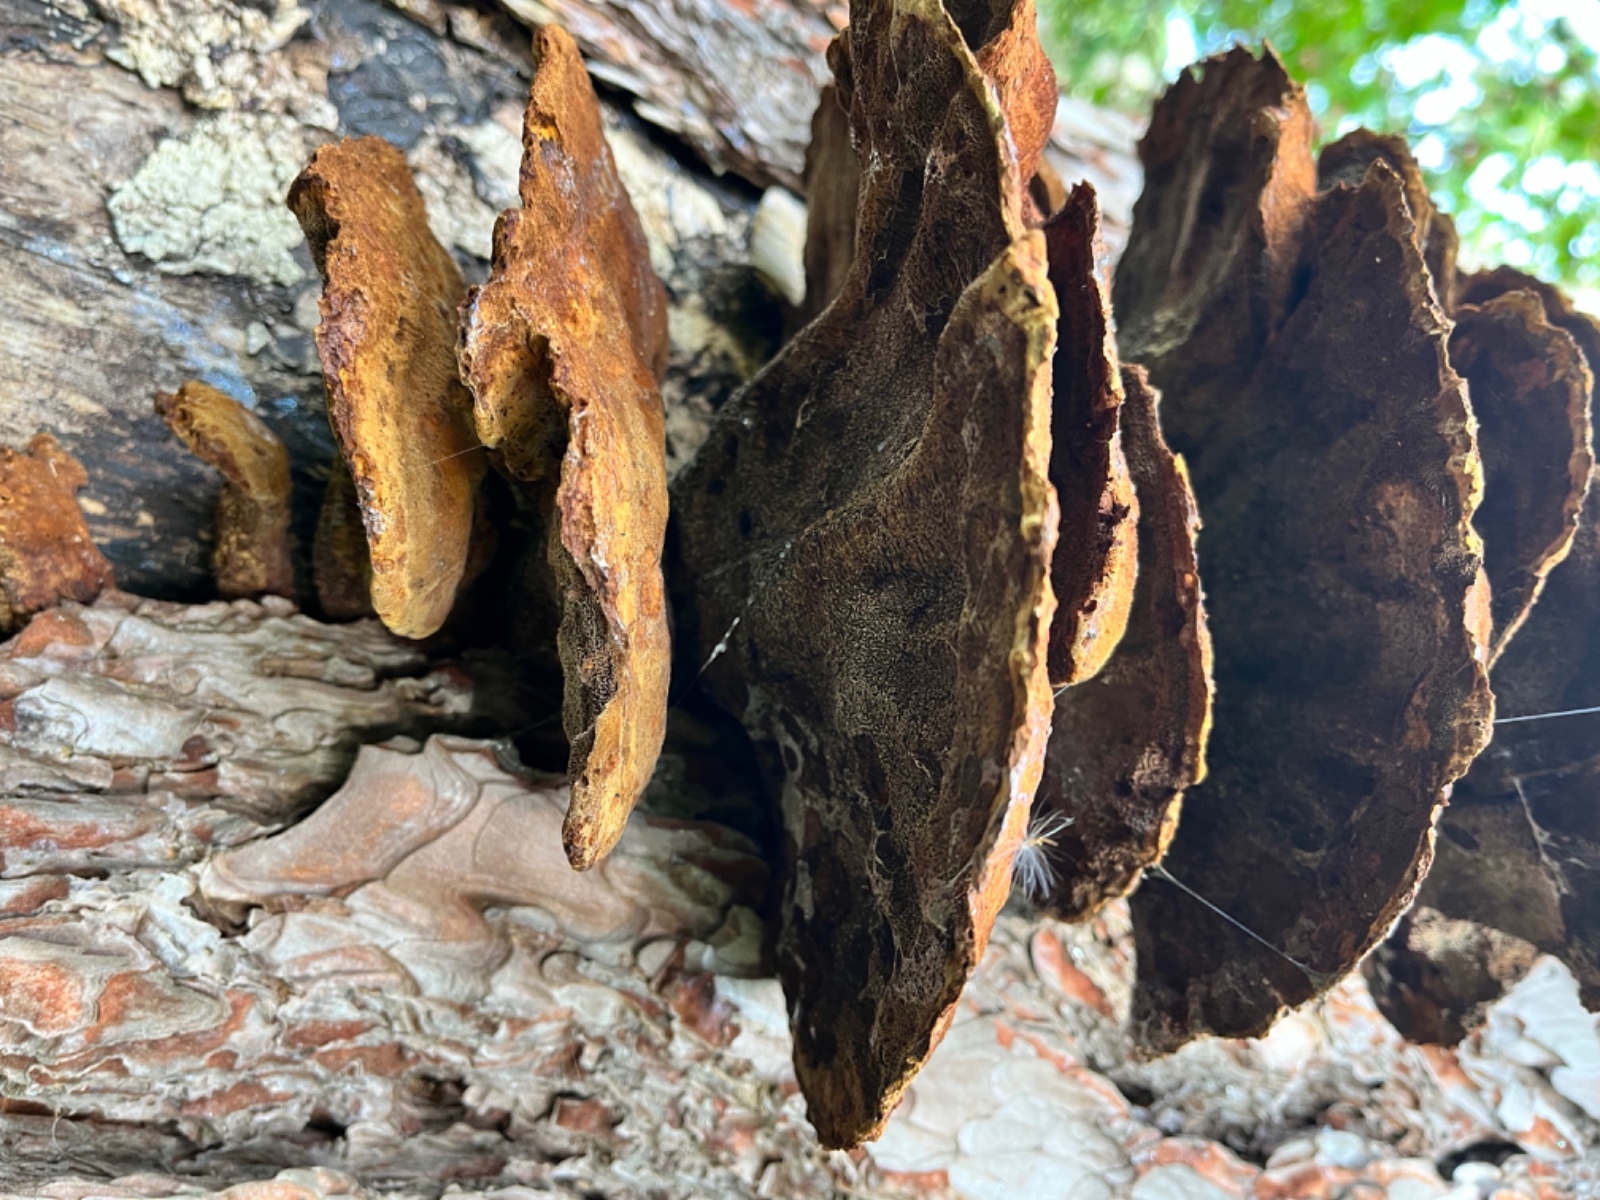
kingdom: Fungi
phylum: Basidiomycota
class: Agaricomycetes
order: Polyporales
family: Laetiporaceae
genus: Phaeolus
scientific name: Phaeolus schweinitzii
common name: brunporesvamp
